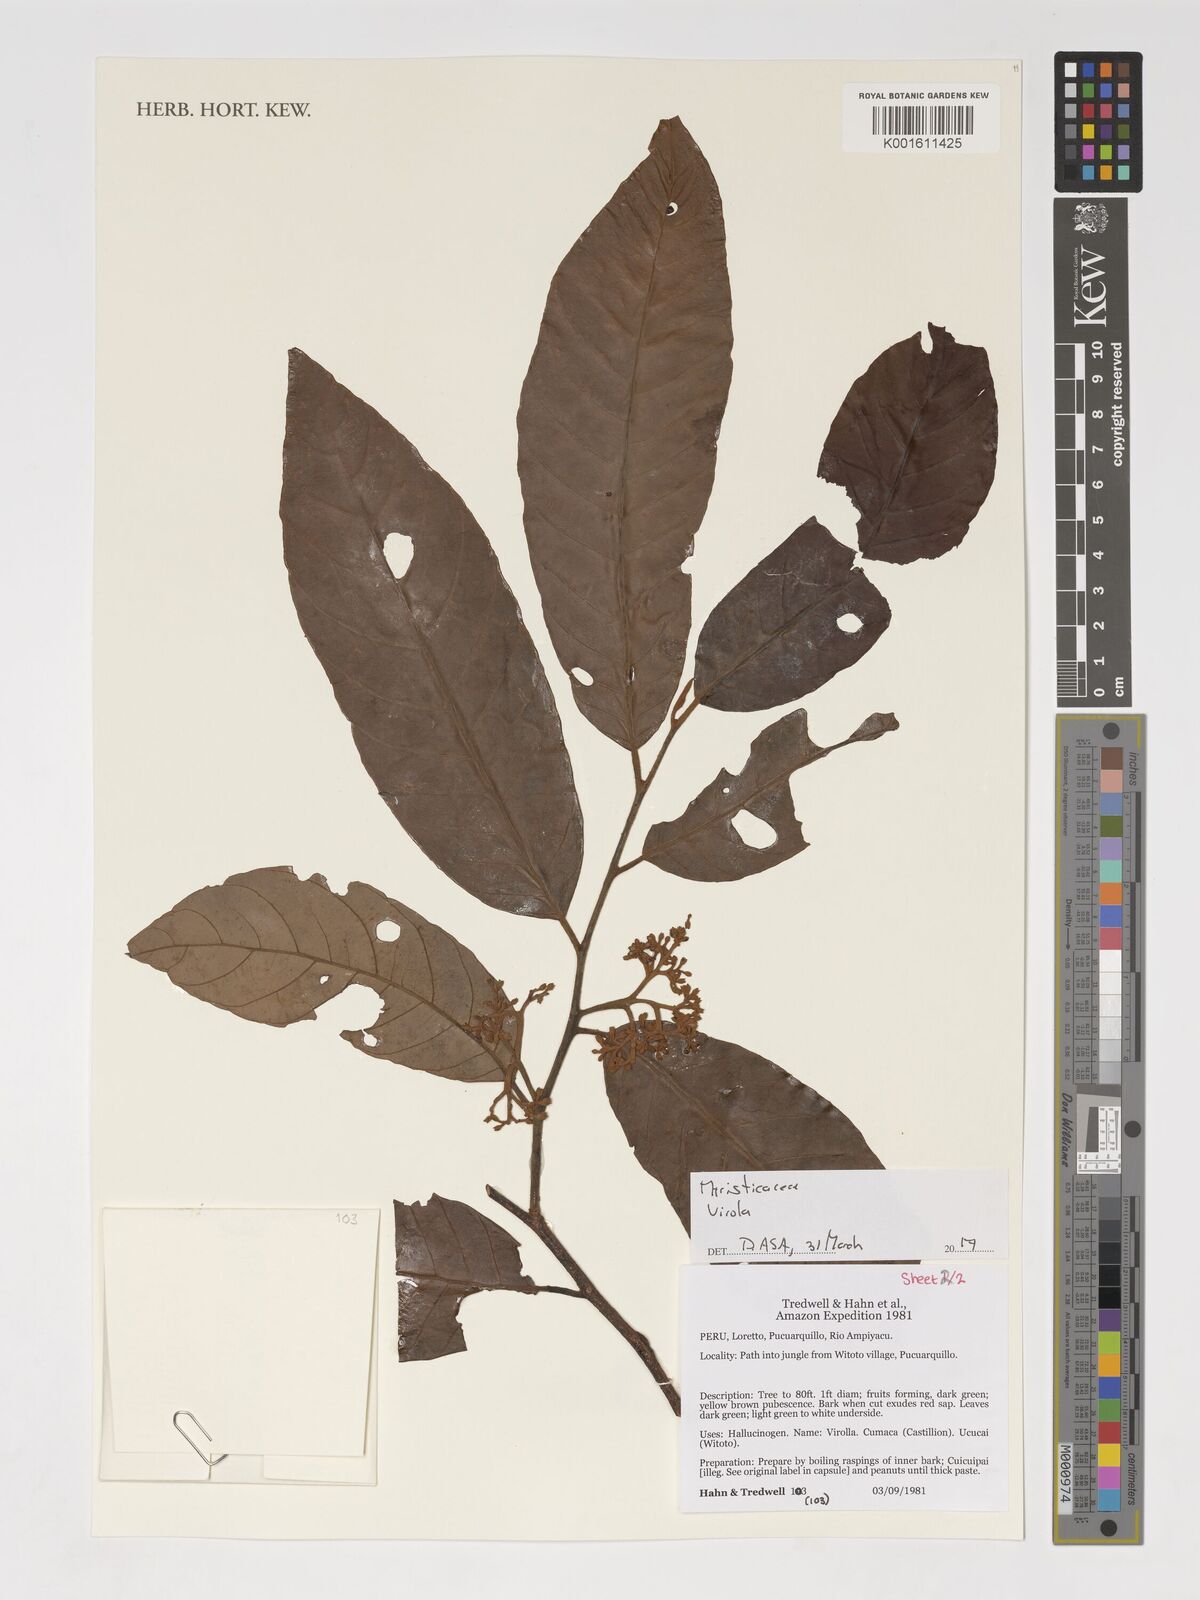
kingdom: Plantae
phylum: Tracheophyta
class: Magnoliopsida
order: Magnoliales
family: Myristicaceae
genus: Virola
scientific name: Virola
